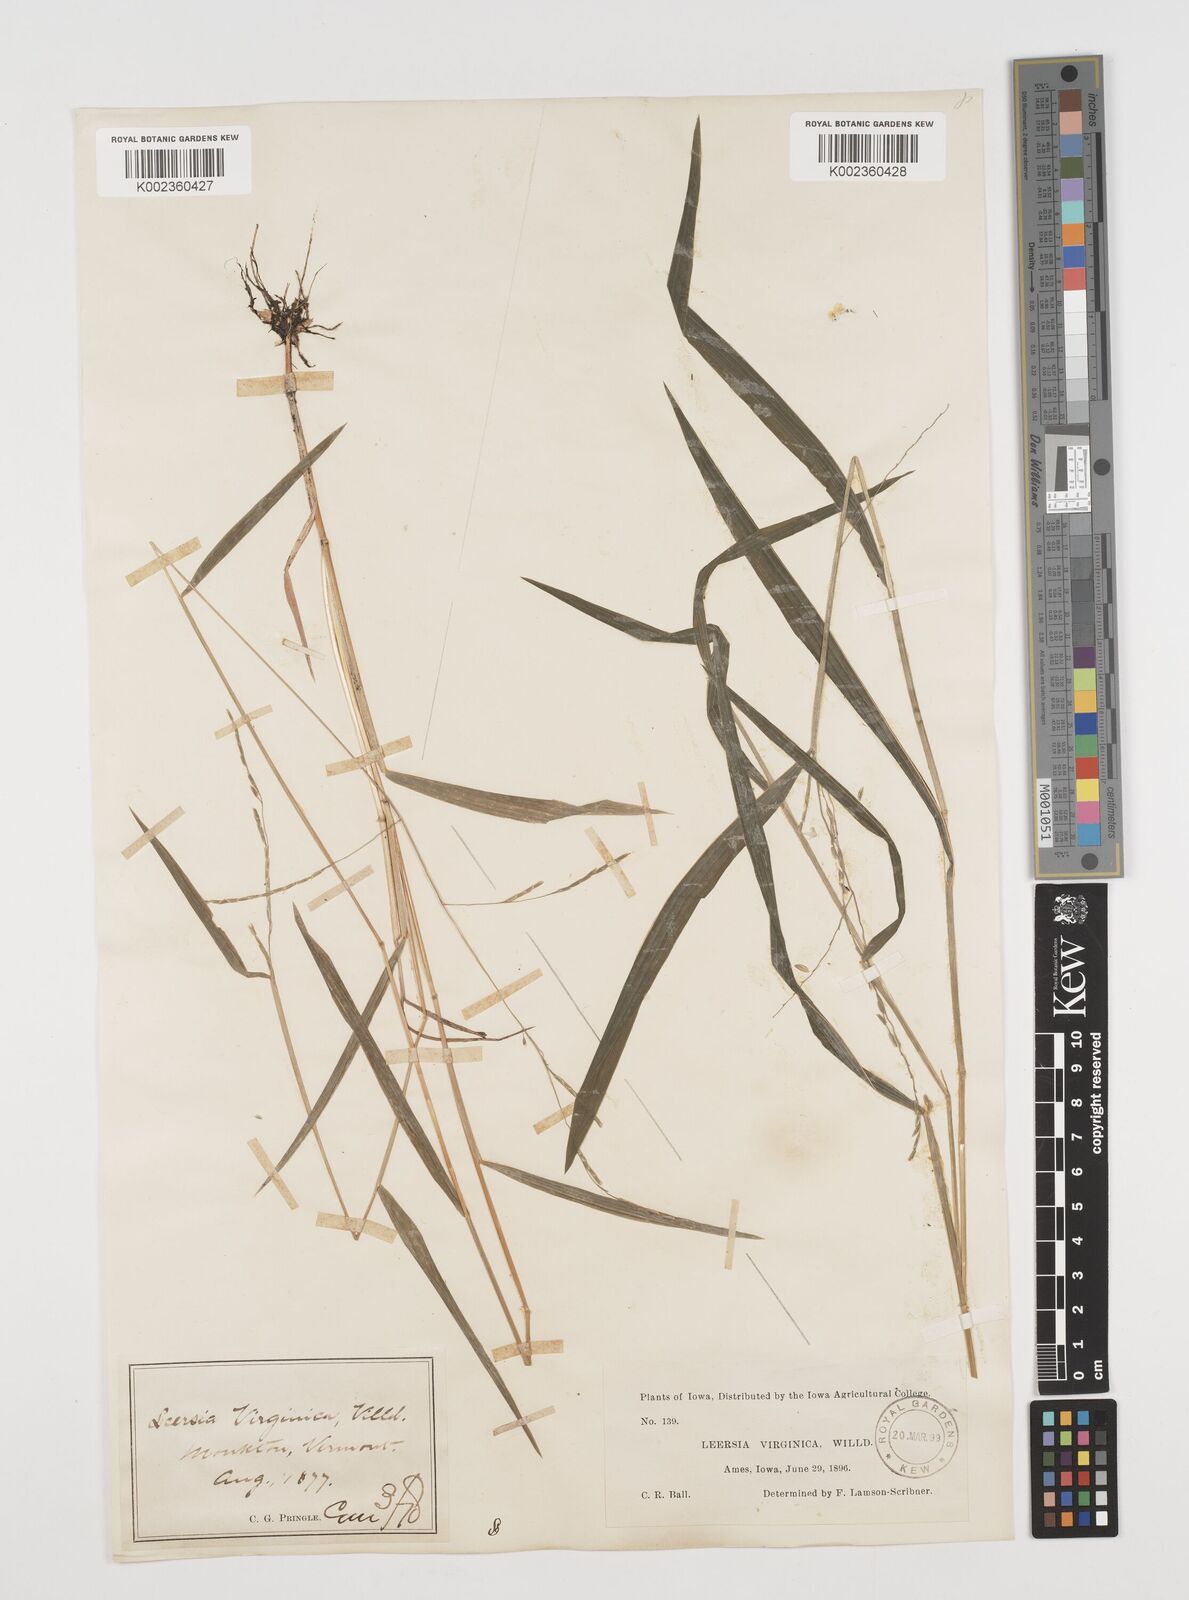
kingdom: Plantae
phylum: Tracheophyta
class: Liliopsida
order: Poales
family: Poaceae
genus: Leersia
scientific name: Leersia virginica
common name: White cutgrass
